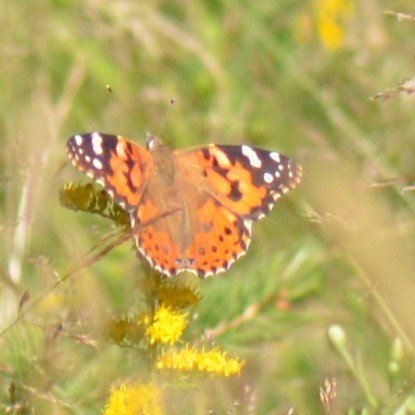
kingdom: Animalia
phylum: Arthropoda
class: Insecta
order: Lepidoptera
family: Nymphalidae
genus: Vanessa
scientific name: Vanessa cardui
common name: Painted Lady
